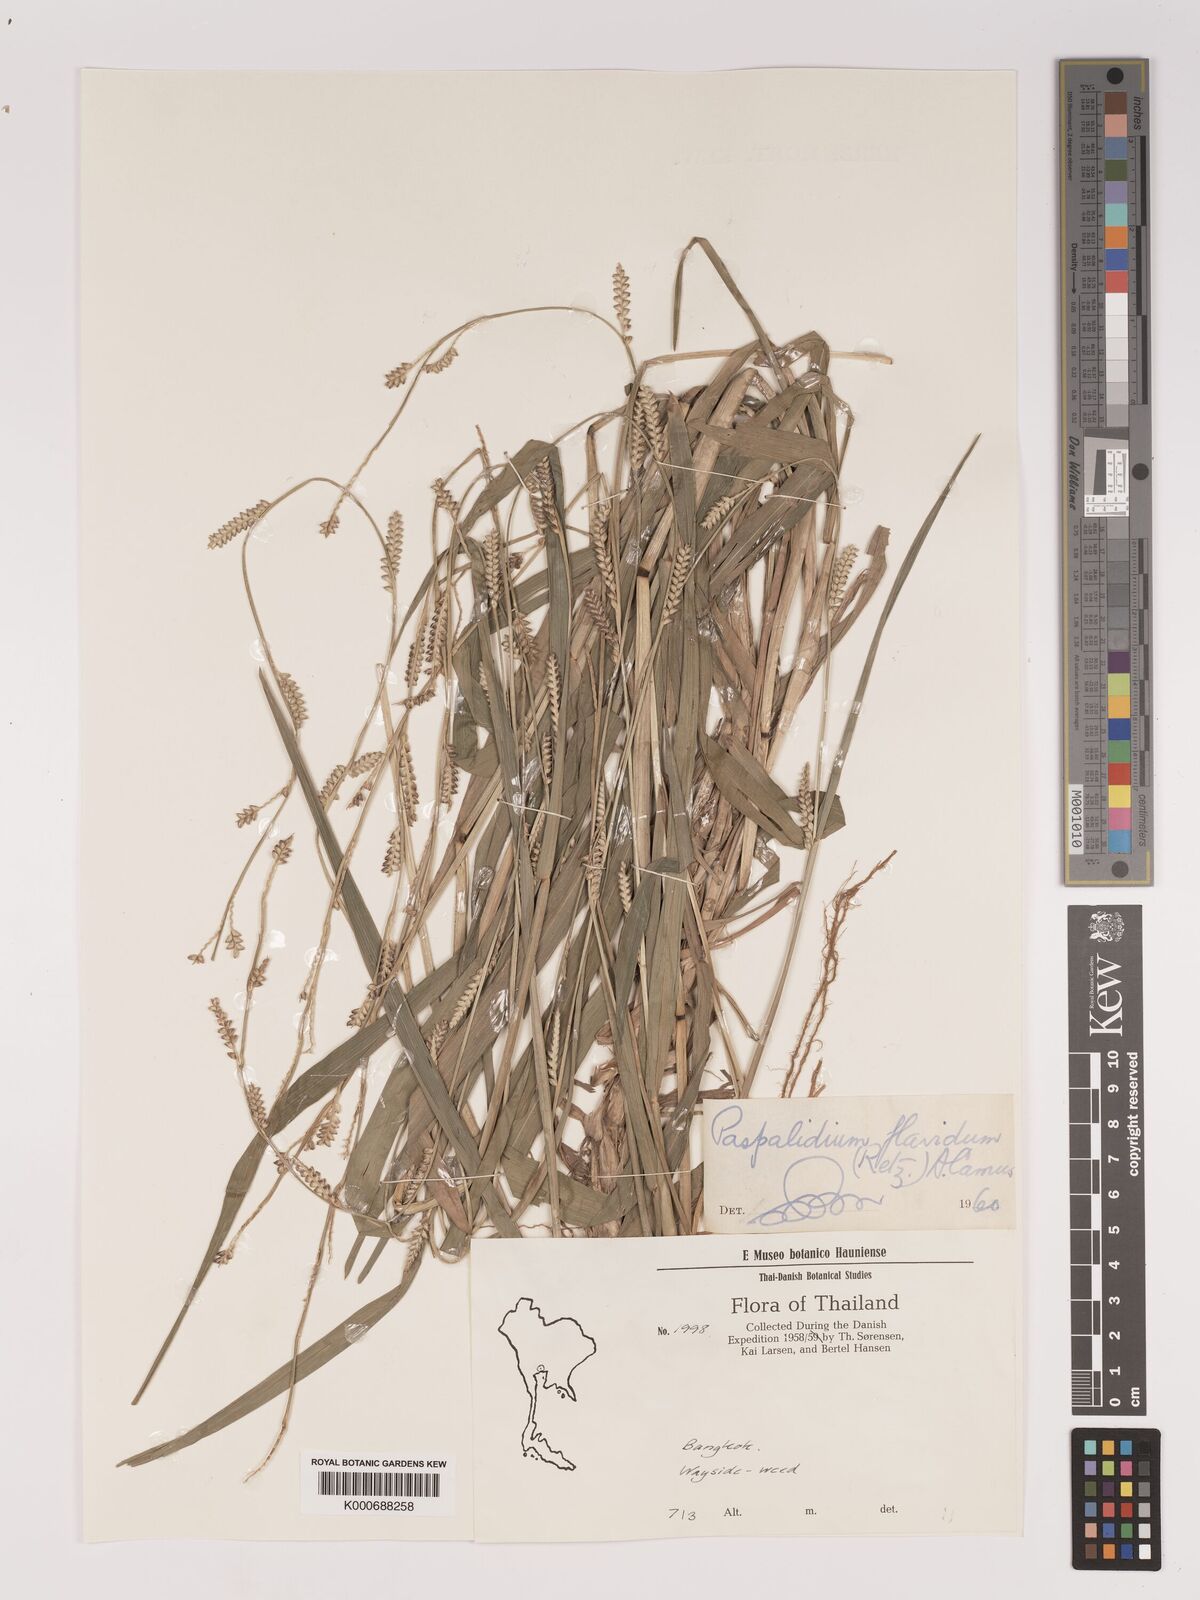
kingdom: Plantae
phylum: Tracheophyta
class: Liliopsida
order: Poales
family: Poaceae
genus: Setaria
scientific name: Setaria flavida
